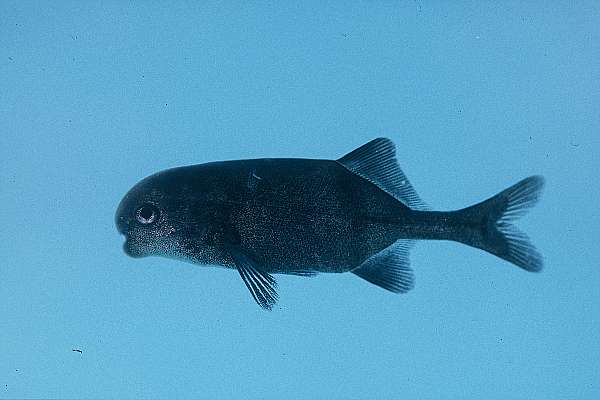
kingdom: Animalia
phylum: Chordata
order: Osteoglossiformes
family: Mormyridae
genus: Cyphomyrus
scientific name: Cyphomyrus discorhynchus
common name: Zambezi parrotfish
